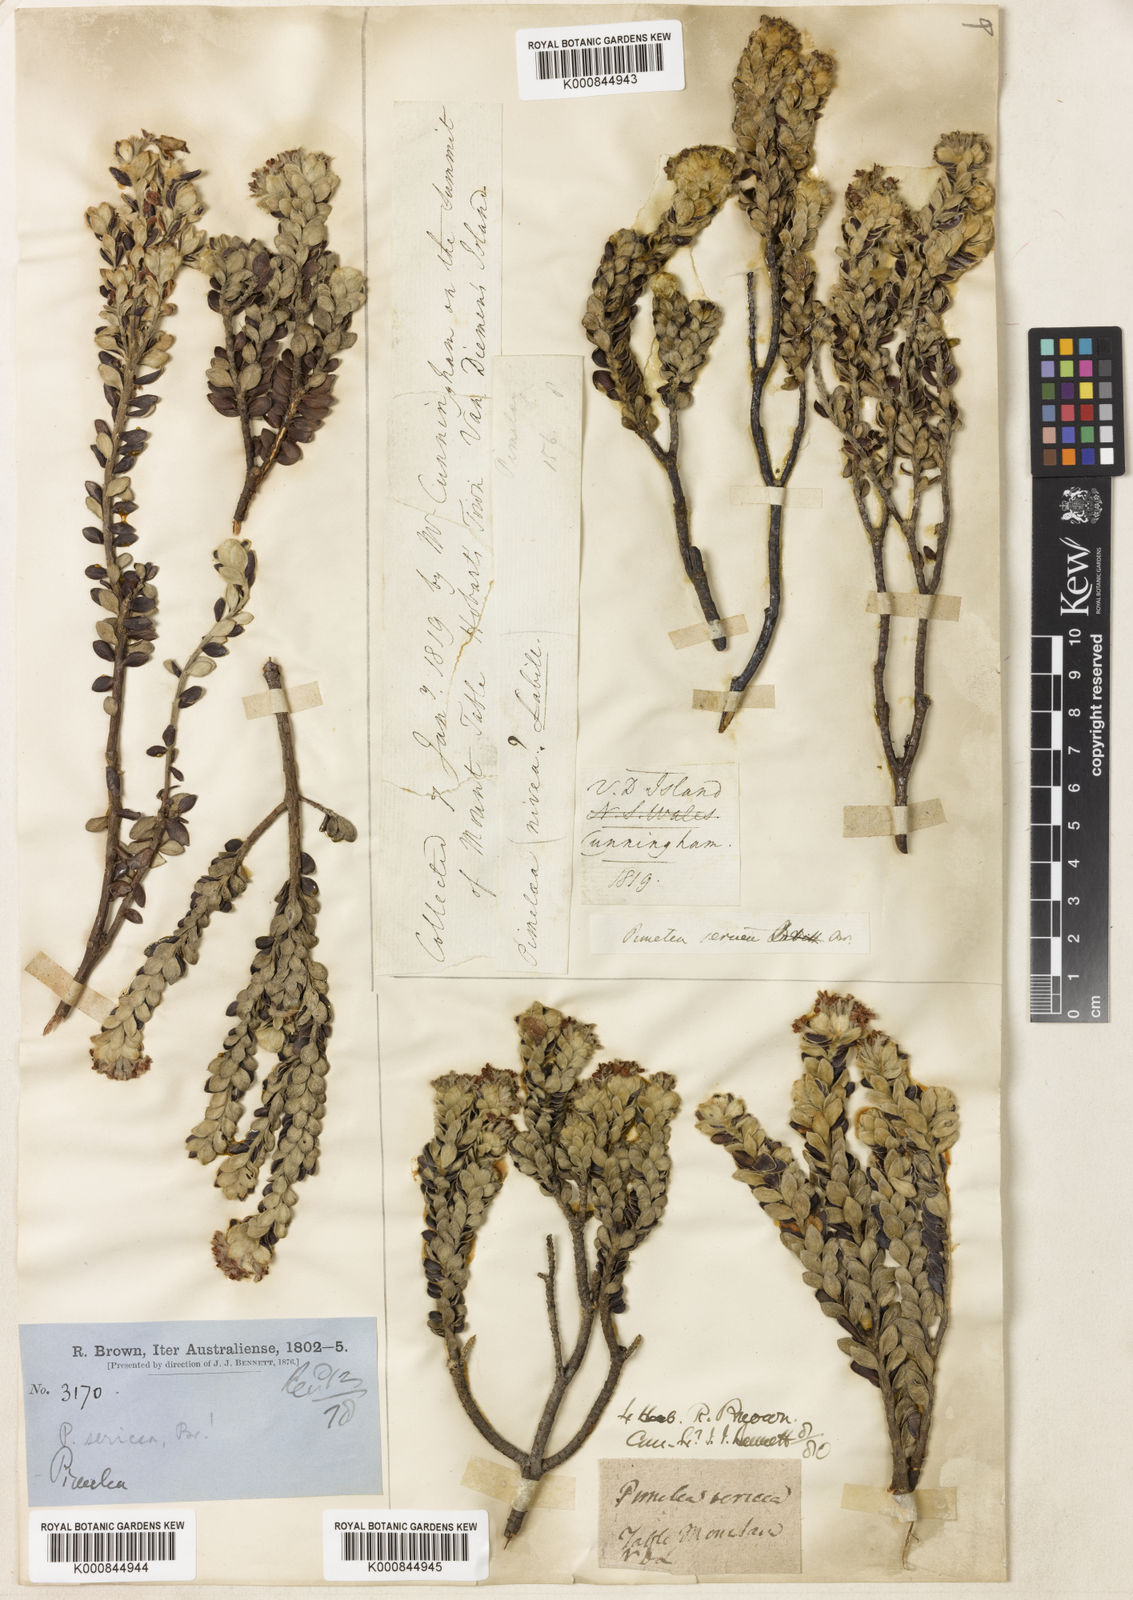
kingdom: Plantae
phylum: Tracheophyta
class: Magnoliopsida
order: Malvales
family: Thymelaeaceae
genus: Pimelea
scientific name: Pimelea sericea
